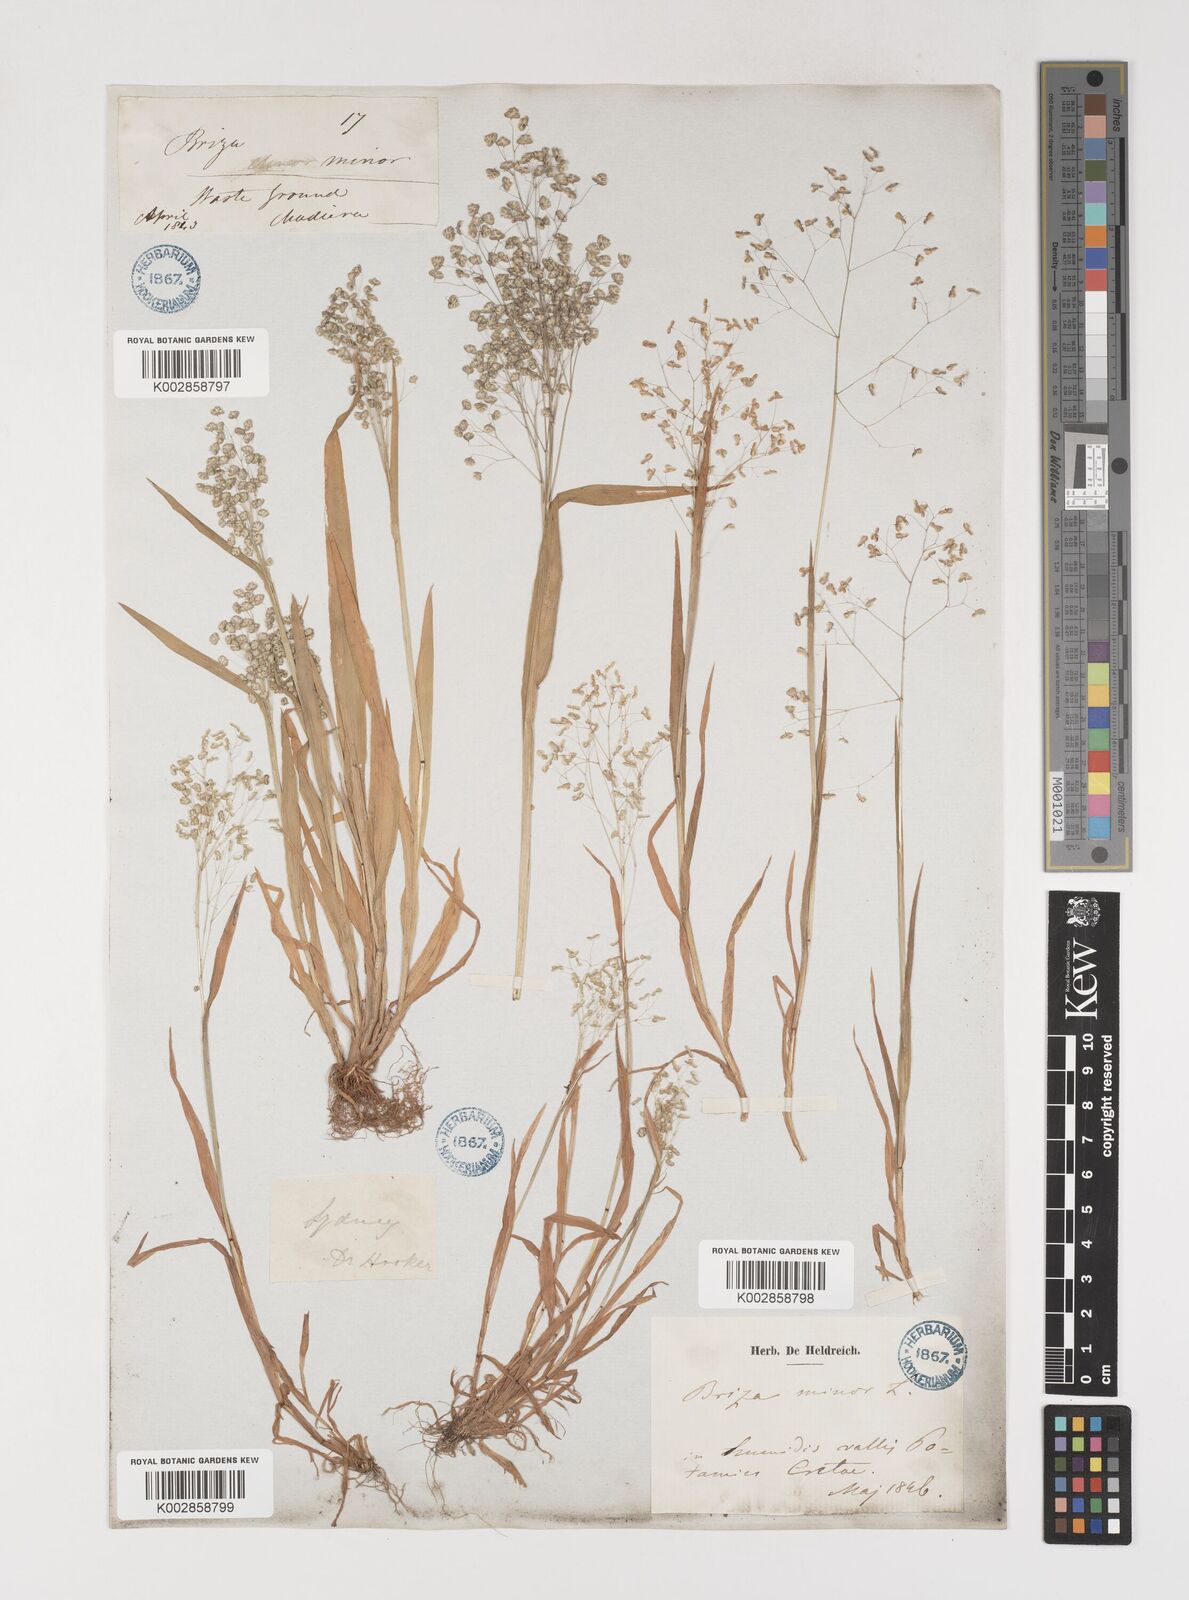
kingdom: Plantae
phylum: Tracheophyta
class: Liliopsida
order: Poales
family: Poaceae
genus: Briza
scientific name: Briza minor
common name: Lesser quaking-grass
